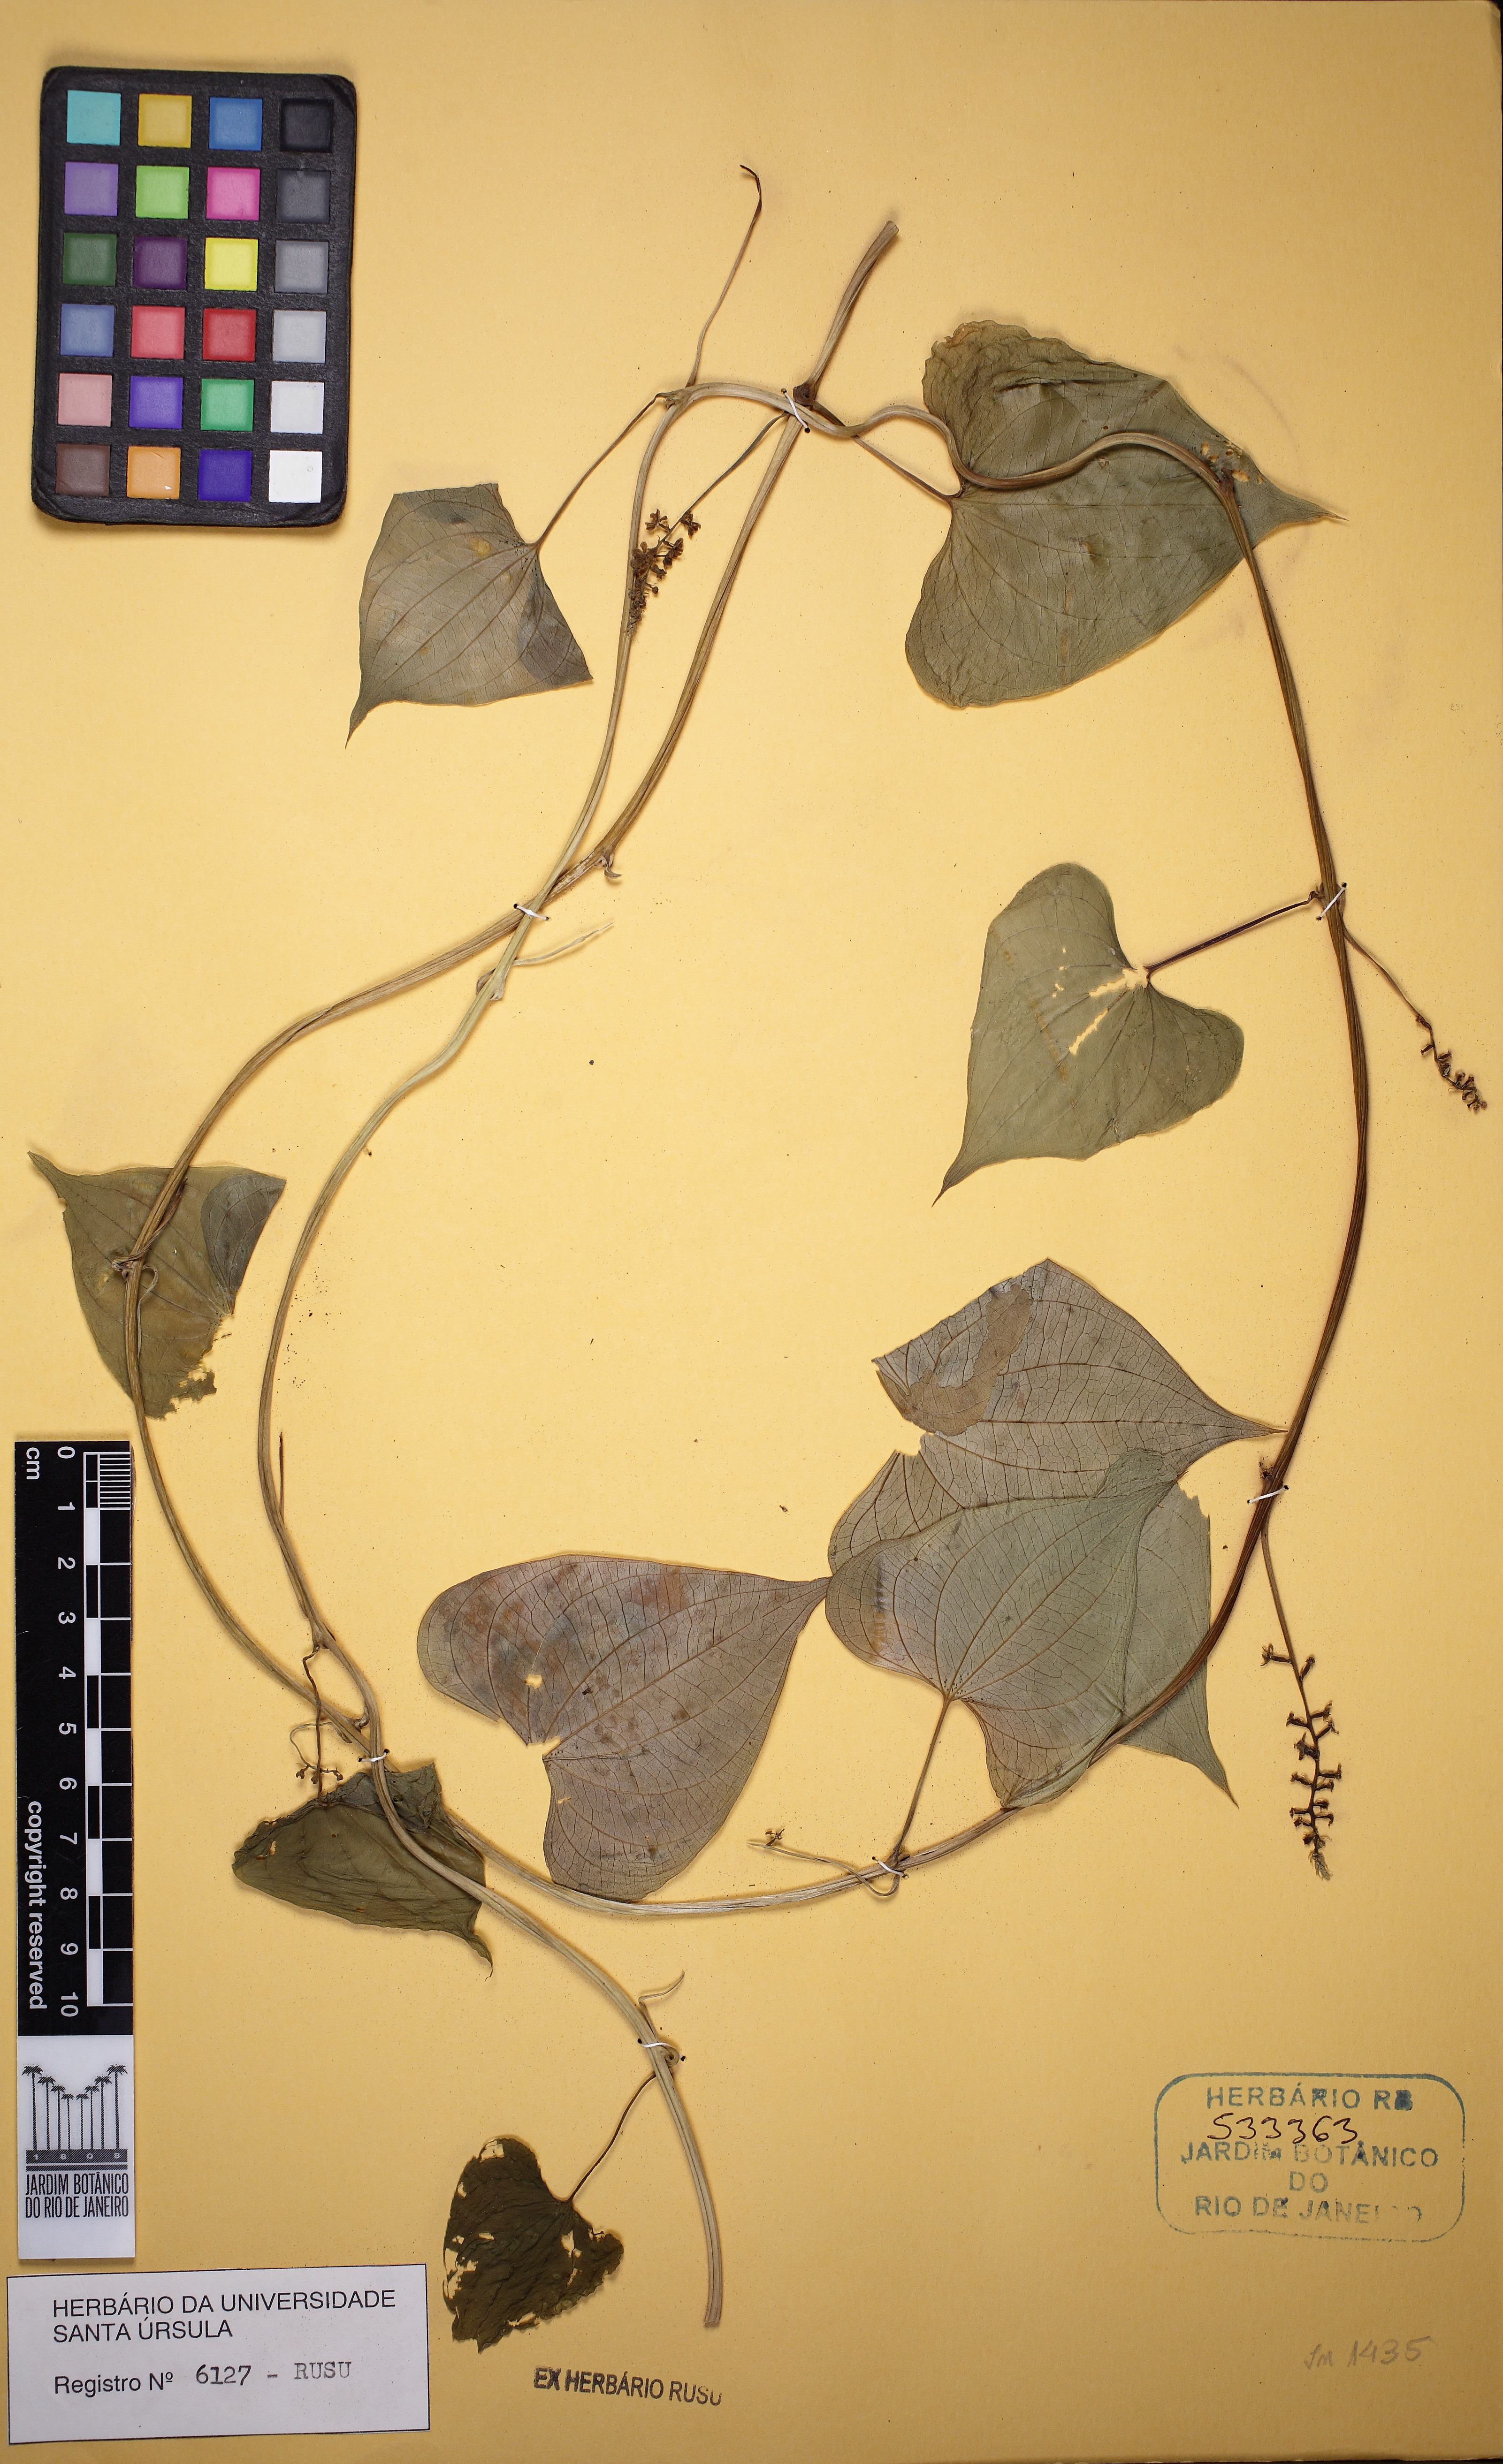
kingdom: Plantae
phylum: Tracheophyta
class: Liliopsida
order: Dioscoreales
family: Dioscoreaceae
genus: Dioscorea
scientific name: Dioscorea glandulosa
